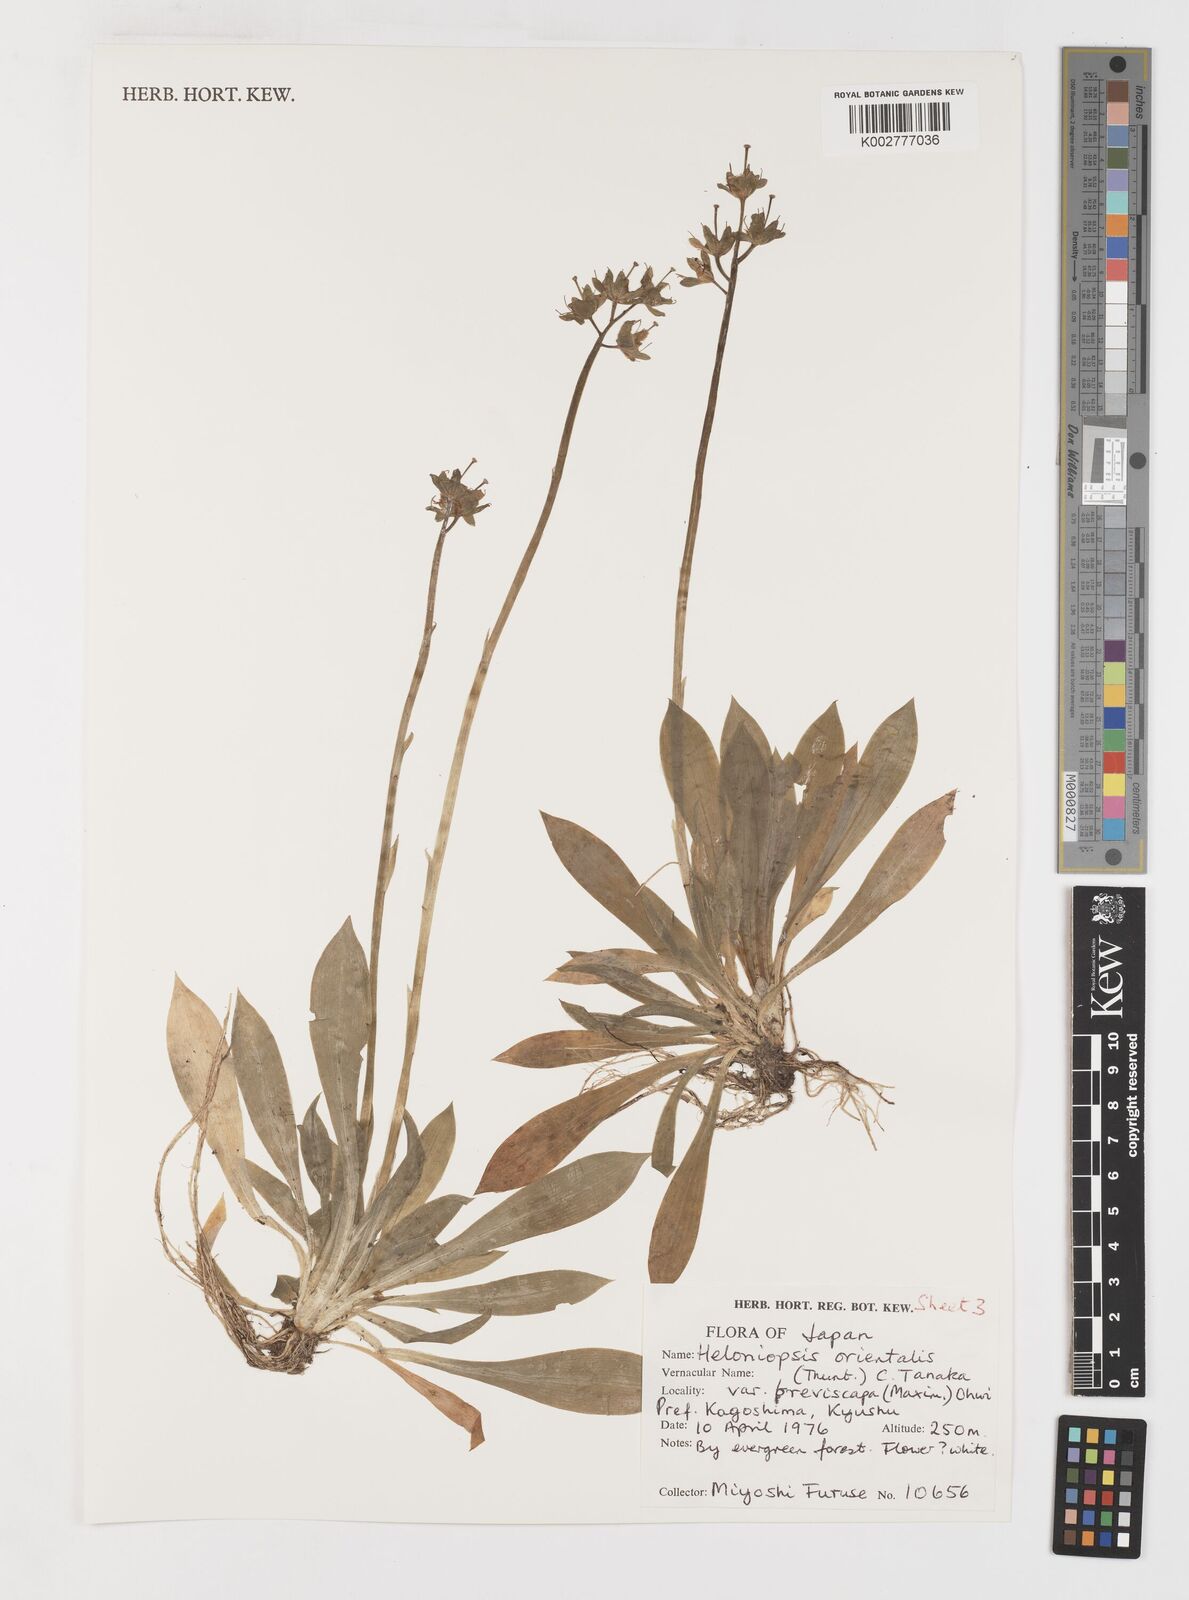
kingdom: Plantae
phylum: Tracheophyta
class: Liliopsida
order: Liliales
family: Melanthiaceae
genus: Helonias
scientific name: Helonias orientalis
